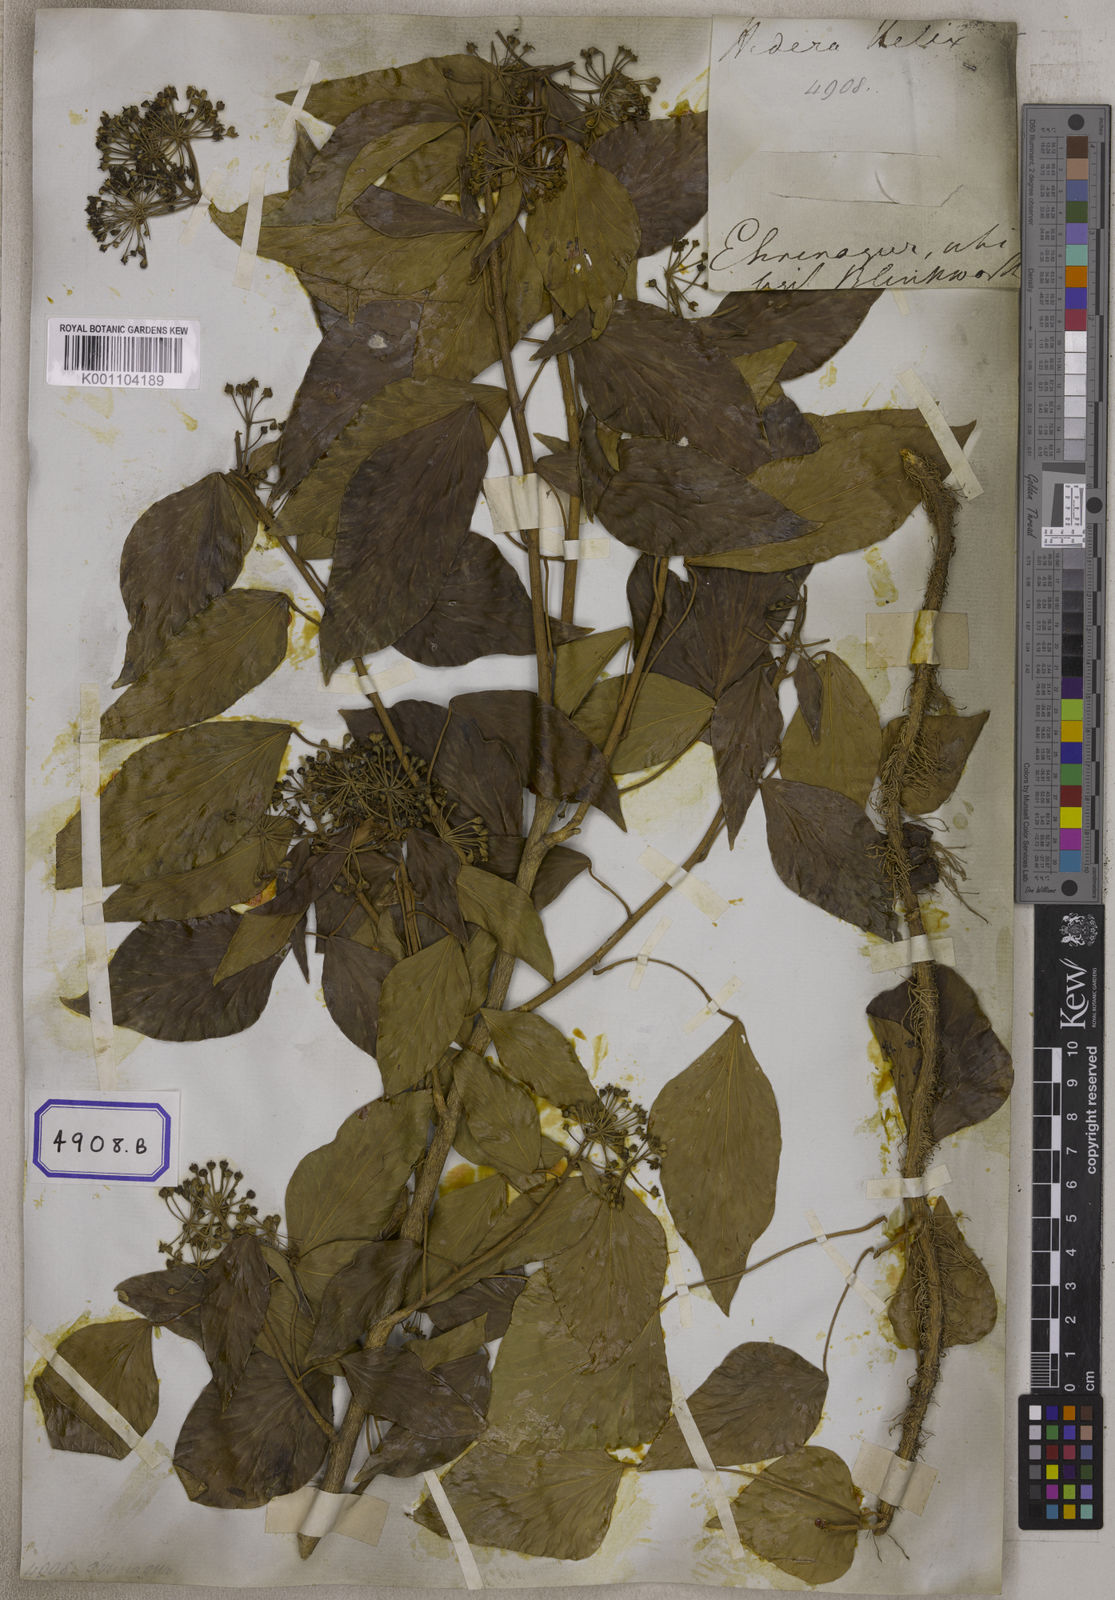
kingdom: Plantae
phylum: Tracheophyta
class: Magnoliopsida
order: Apiales
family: Araliaceae
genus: Hedera
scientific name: Hedera helix
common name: Ivy
